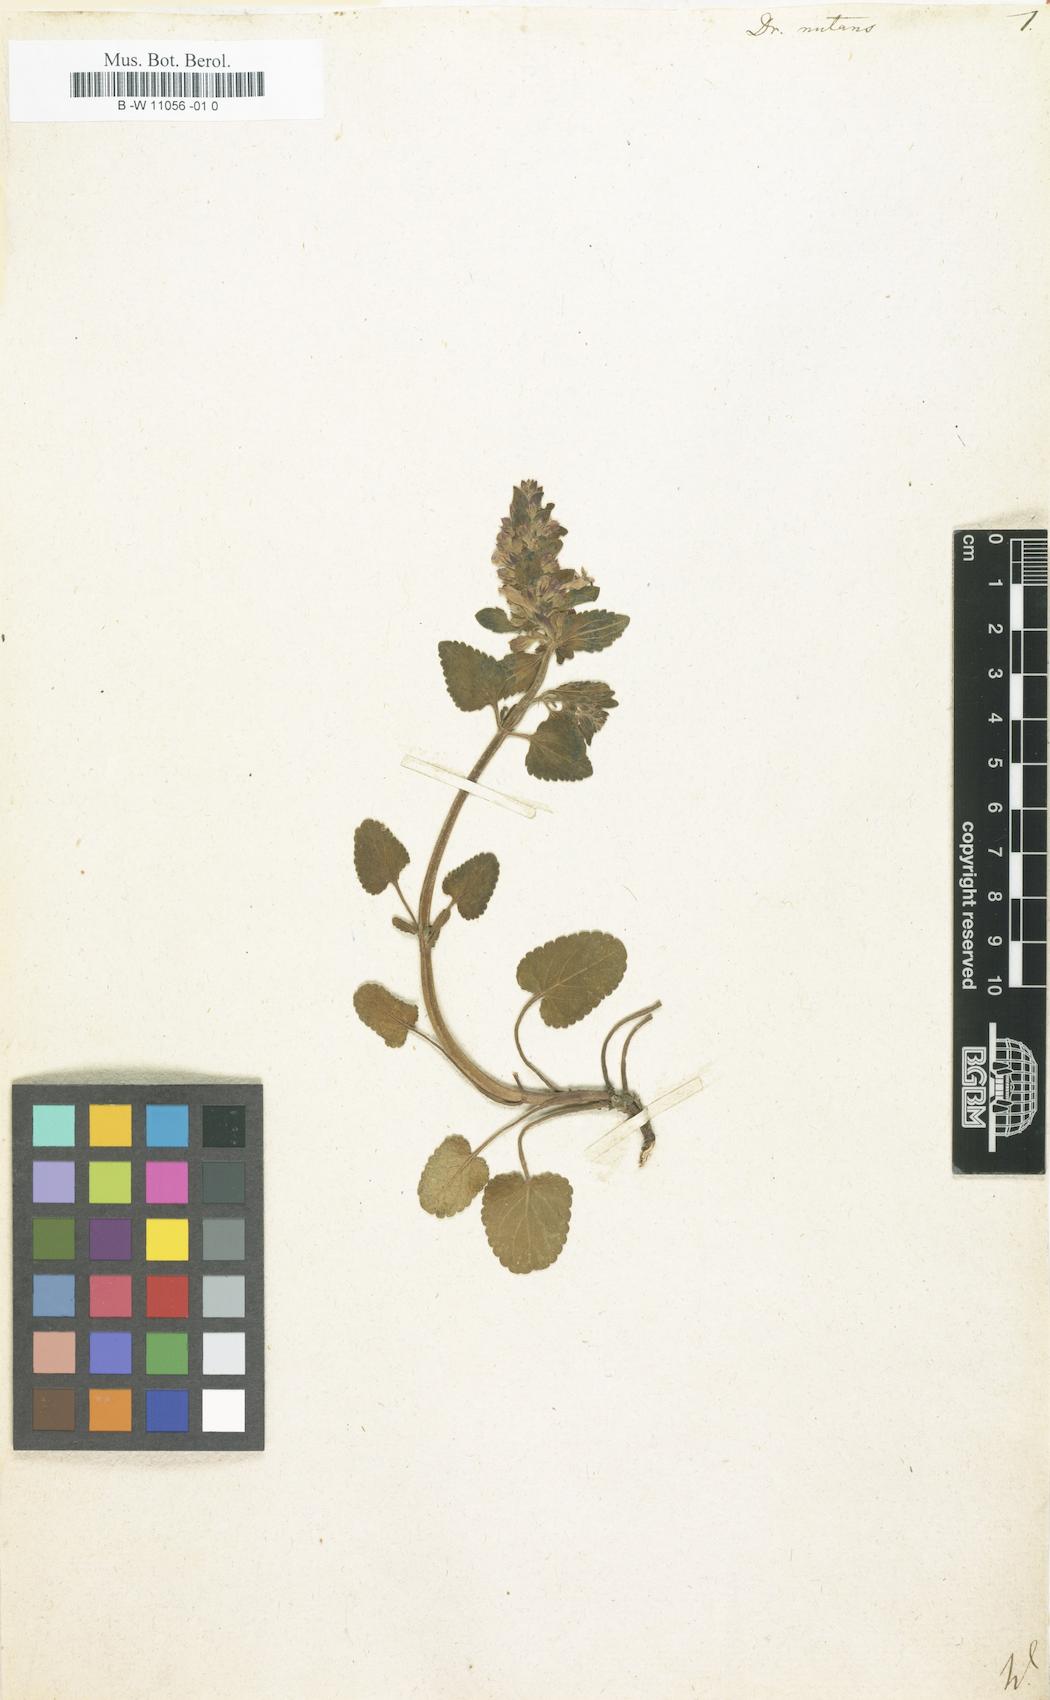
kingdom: Plantae
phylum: Tracheophyta
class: Magnoliopsida
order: Lamiales
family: Lamiaceae
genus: Dracocephalum
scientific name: Dracocephalum nutans
